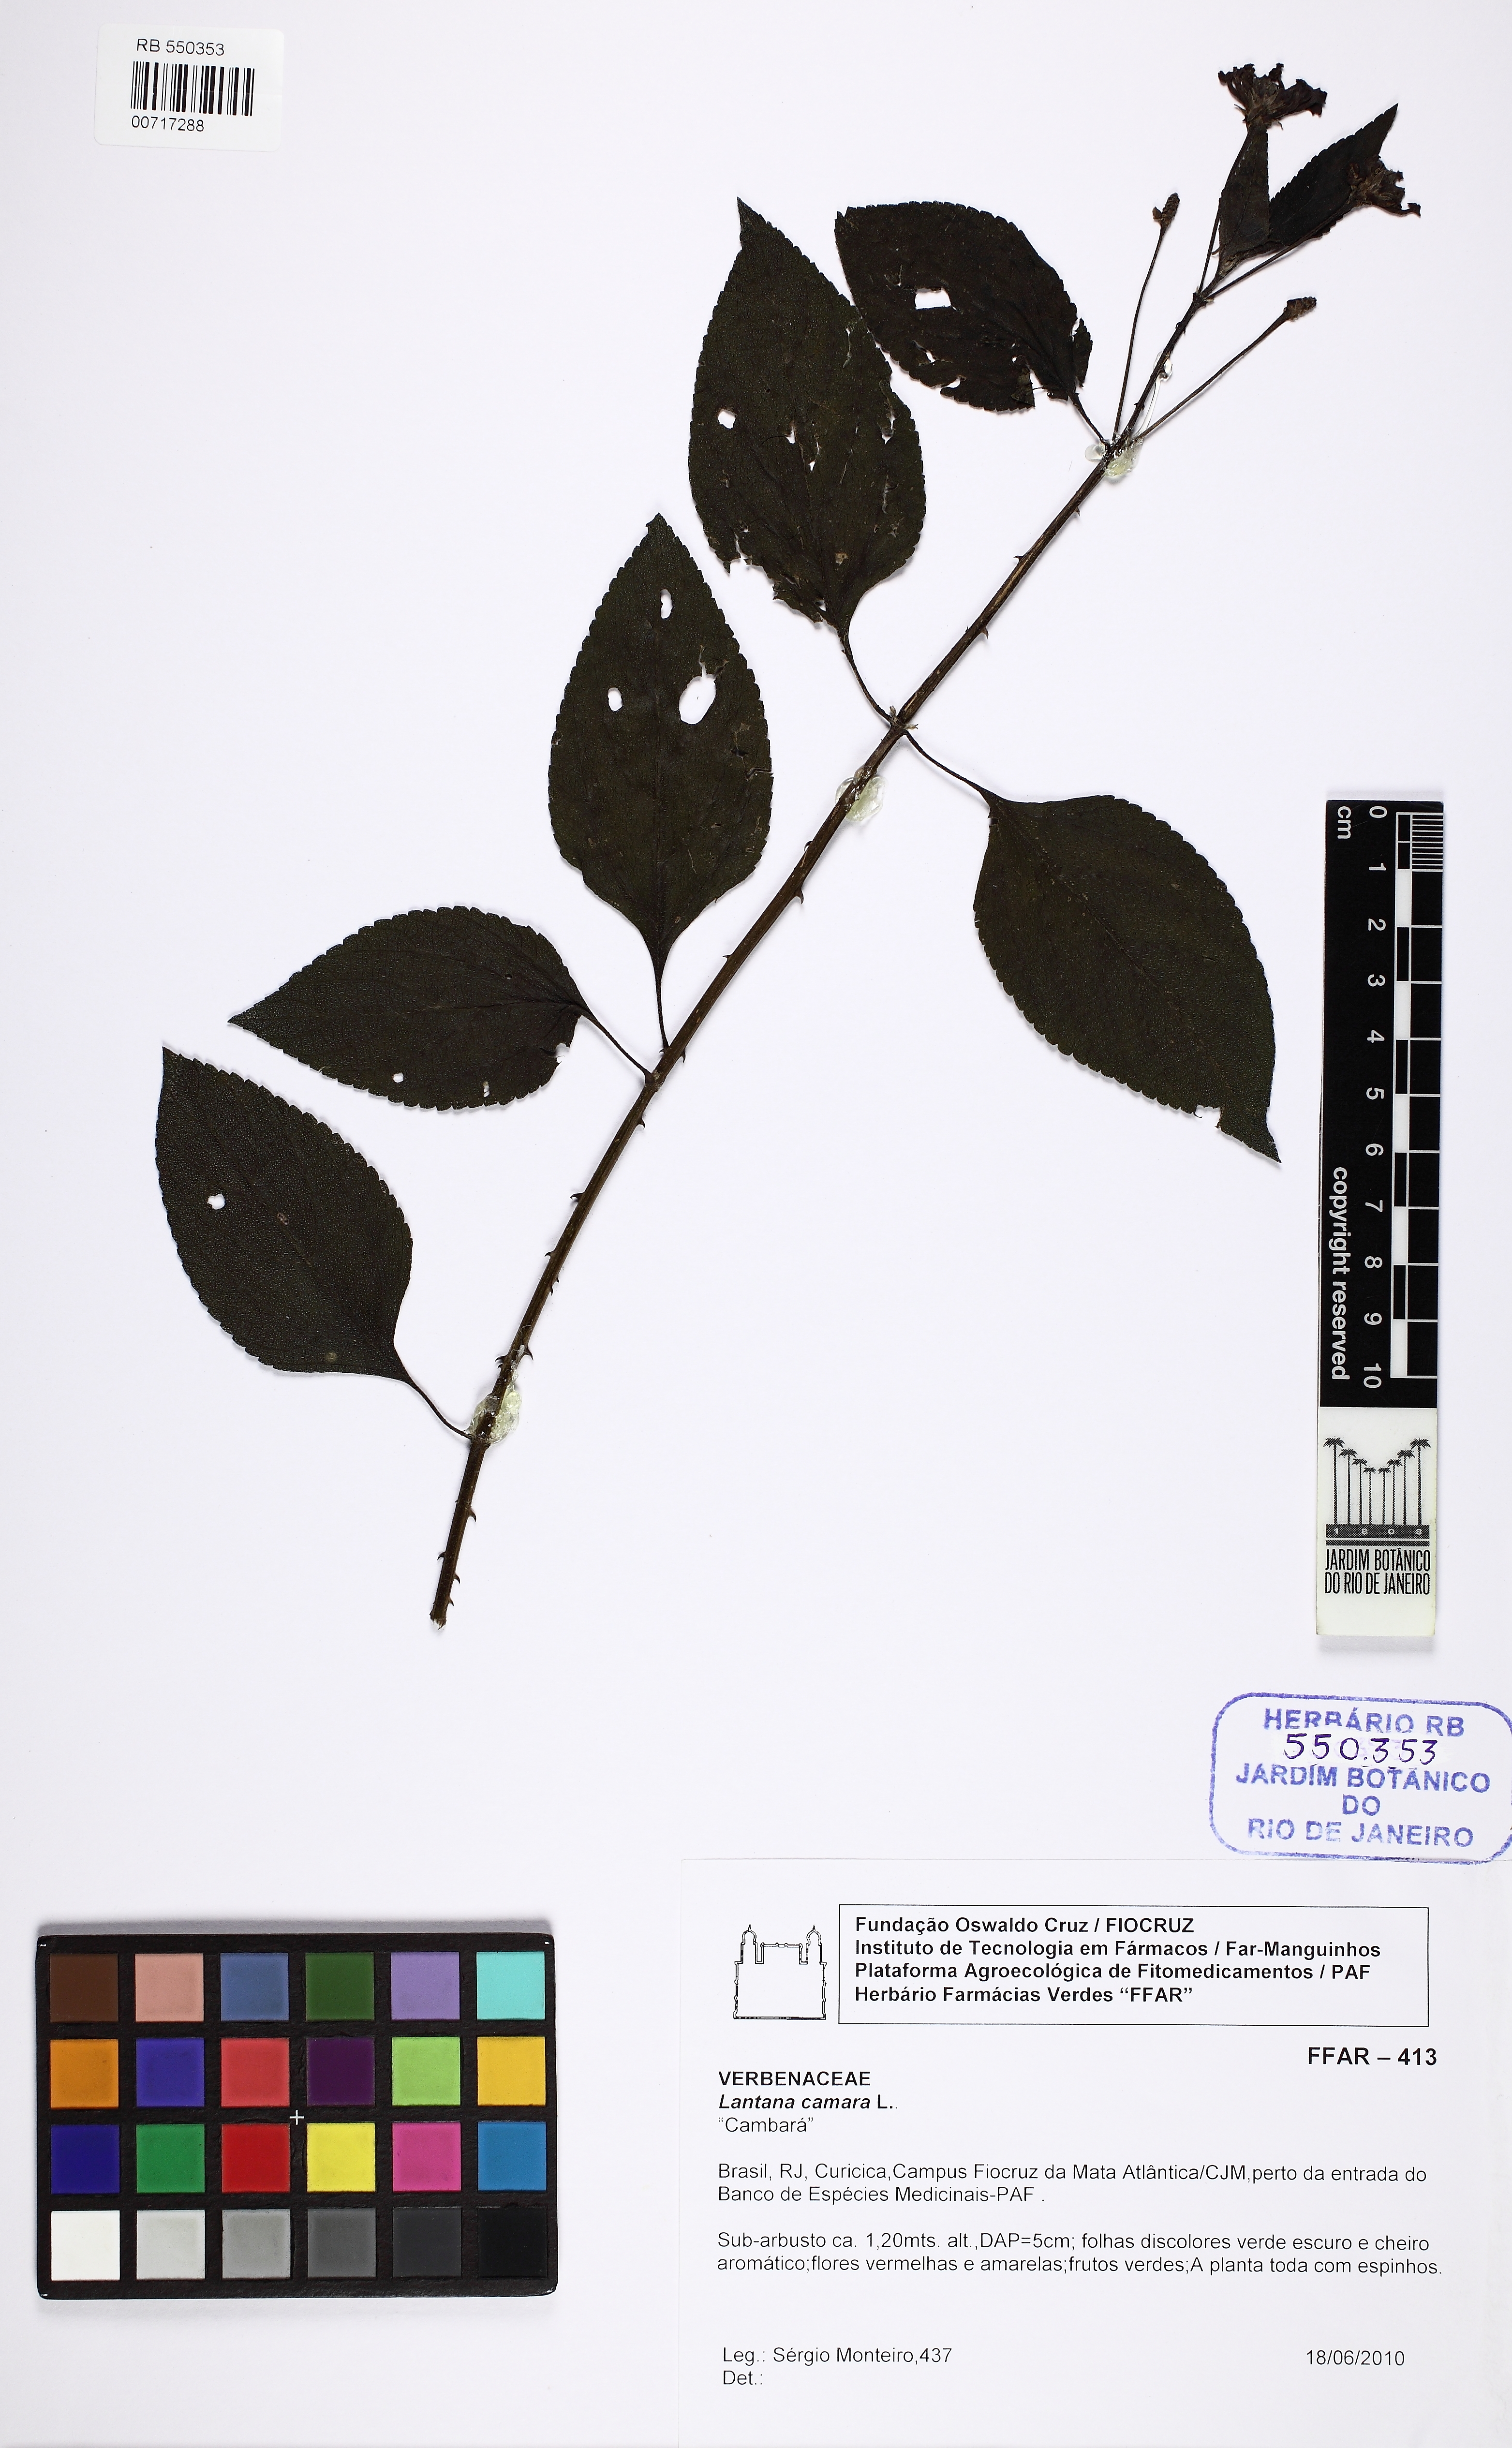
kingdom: Plantae
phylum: Tracheophyta
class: Magnoliopsida
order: Lamiales
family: Verbenaceae
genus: Lantana
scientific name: Lantana camara
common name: Lantana
